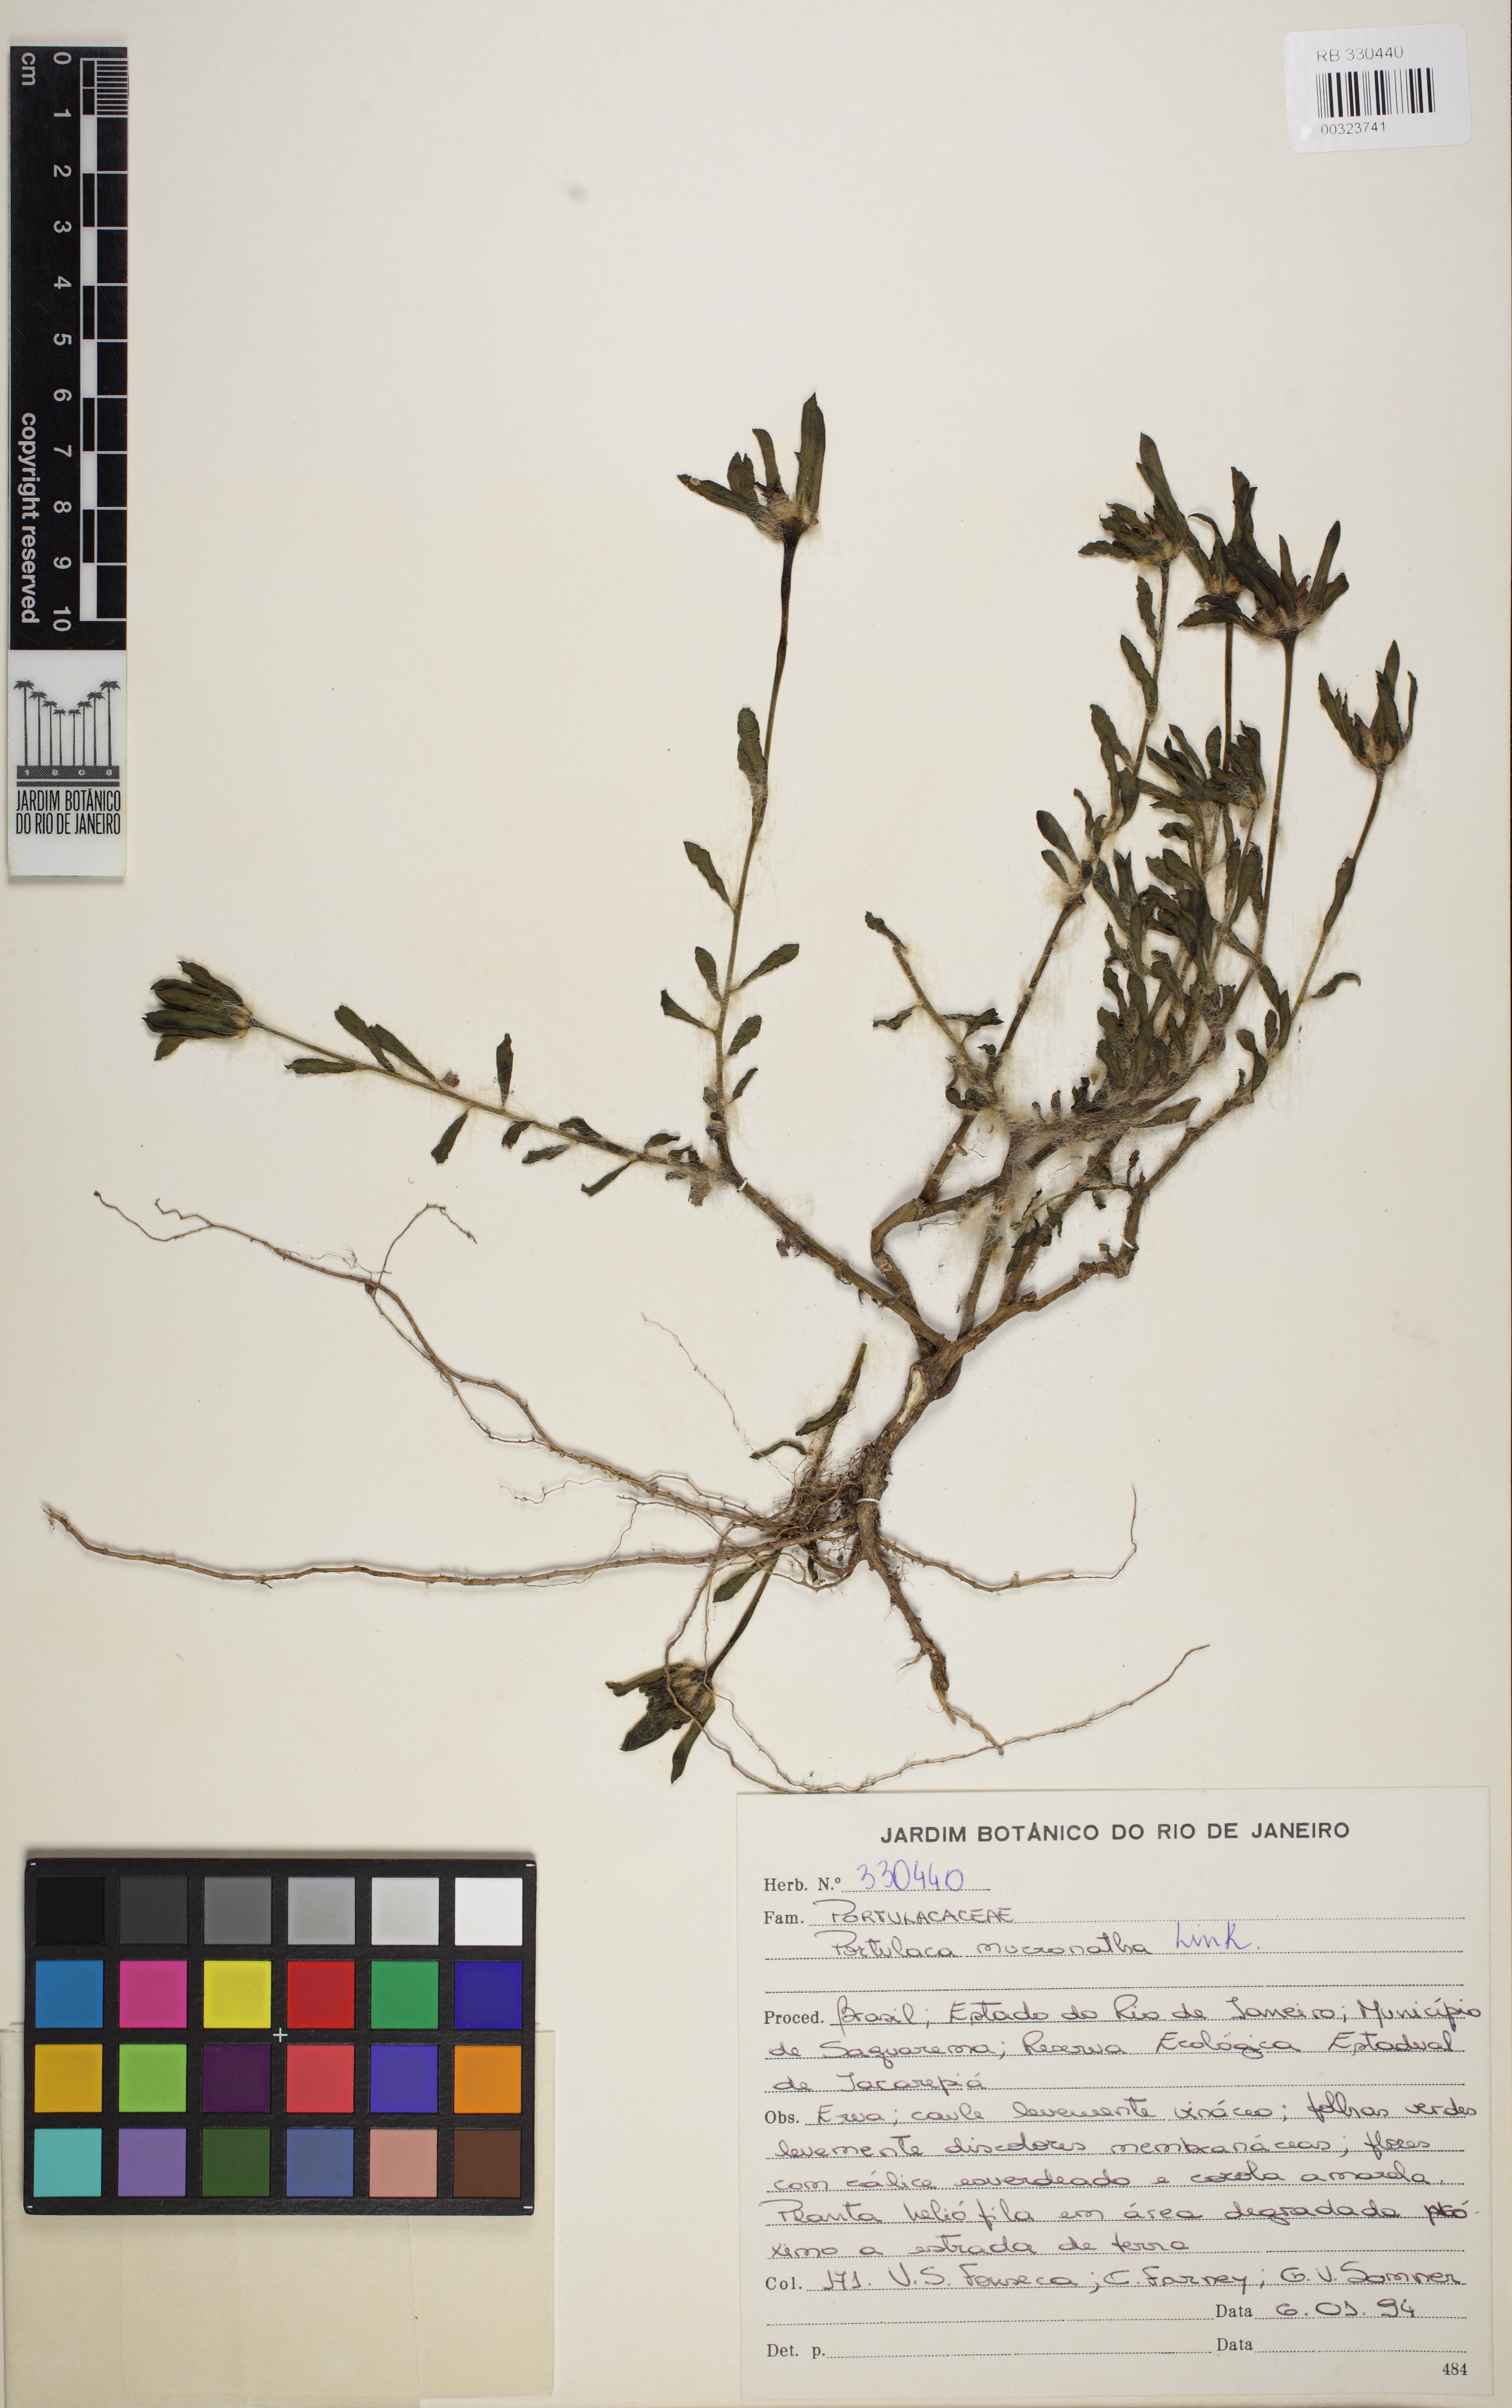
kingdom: Plantae
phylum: Tracheophyta
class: Magnoliopsida
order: Caryophyllales
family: Portulacaceae
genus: Portulaca
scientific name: Portulaca mucronata
